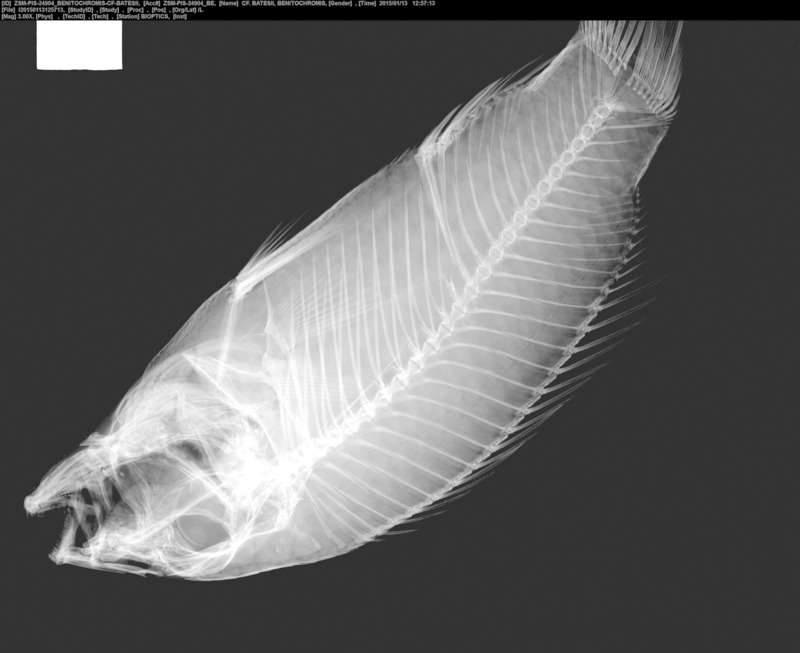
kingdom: Animalia
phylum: Chordata
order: Perciformes
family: Cichlidae
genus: Benitochromis
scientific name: Benitochromis batesii
